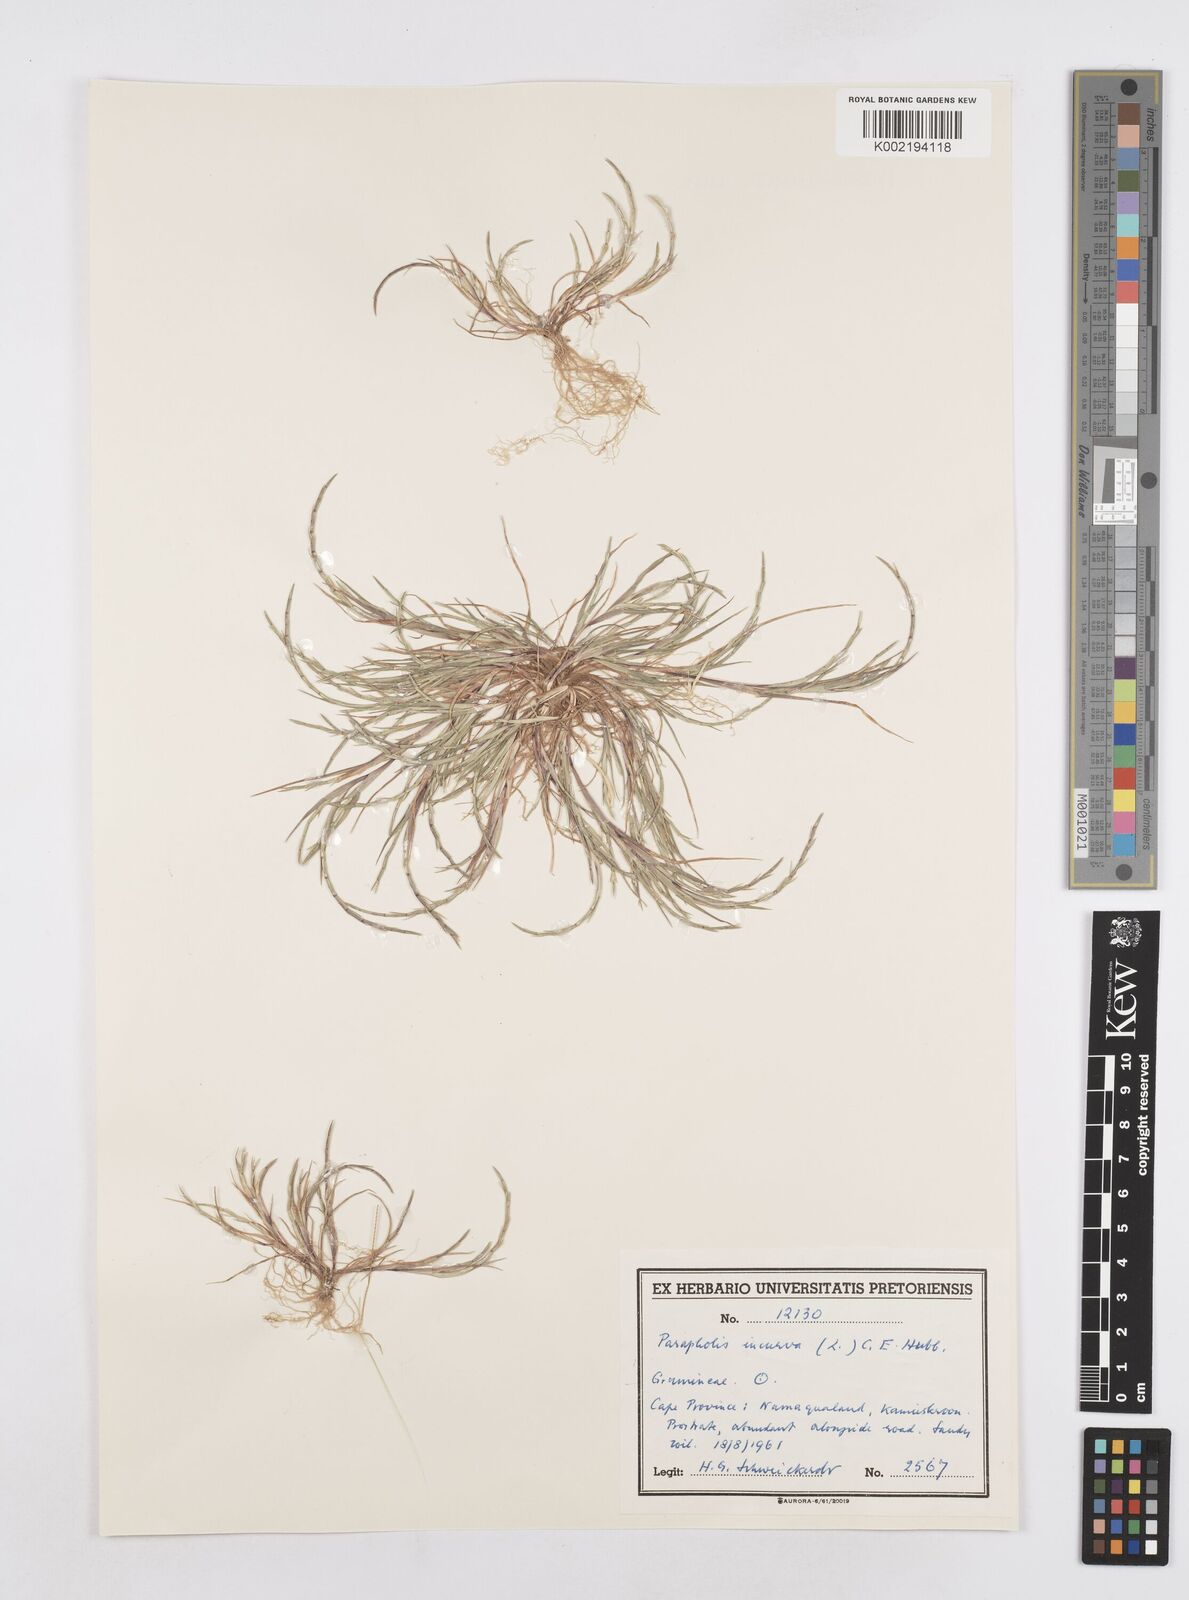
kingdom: Plantae
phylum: Tracheophyta
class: Liliopsida
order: Poales
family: Poaceae
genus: Parapholis
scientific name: Parapholis incurva
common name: Curved sicklegrass
